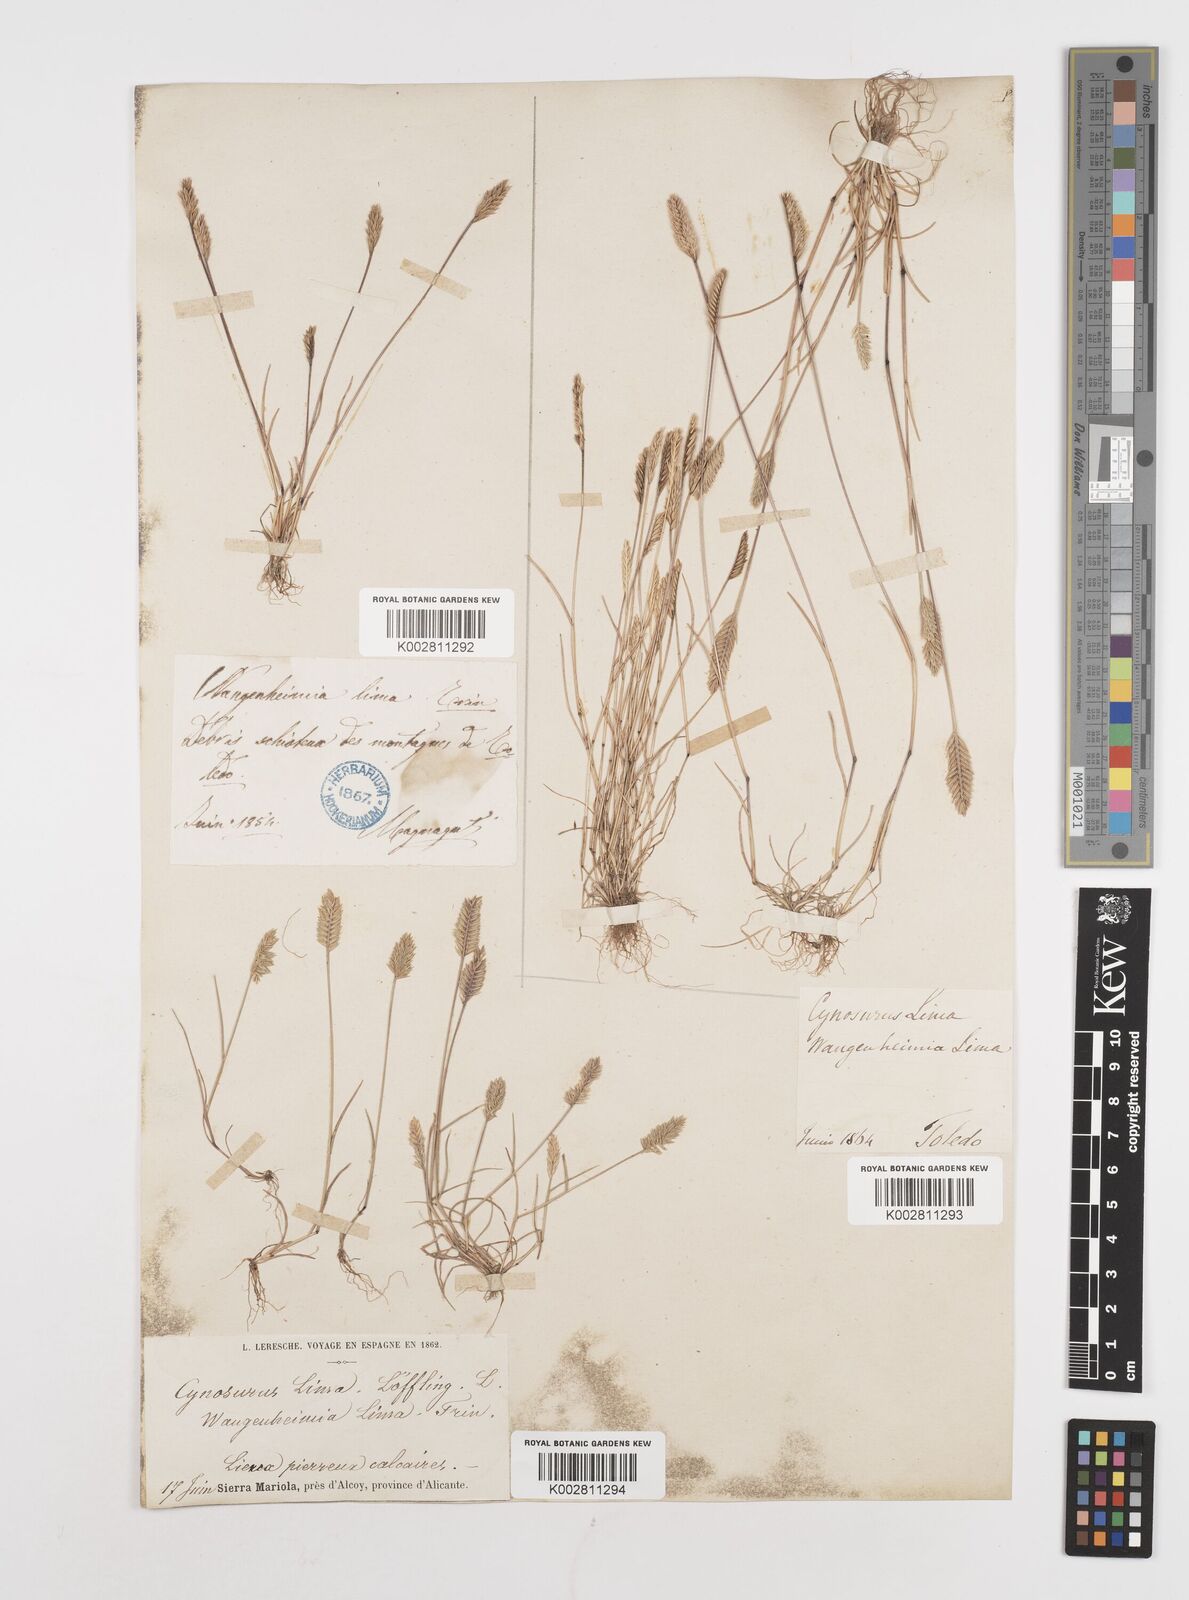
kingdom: Plantae
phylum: Tracheophyta
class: Liliopsida
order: Poales
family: Poaceae
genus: Wangenheimia
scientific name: Wangenheimia lima
